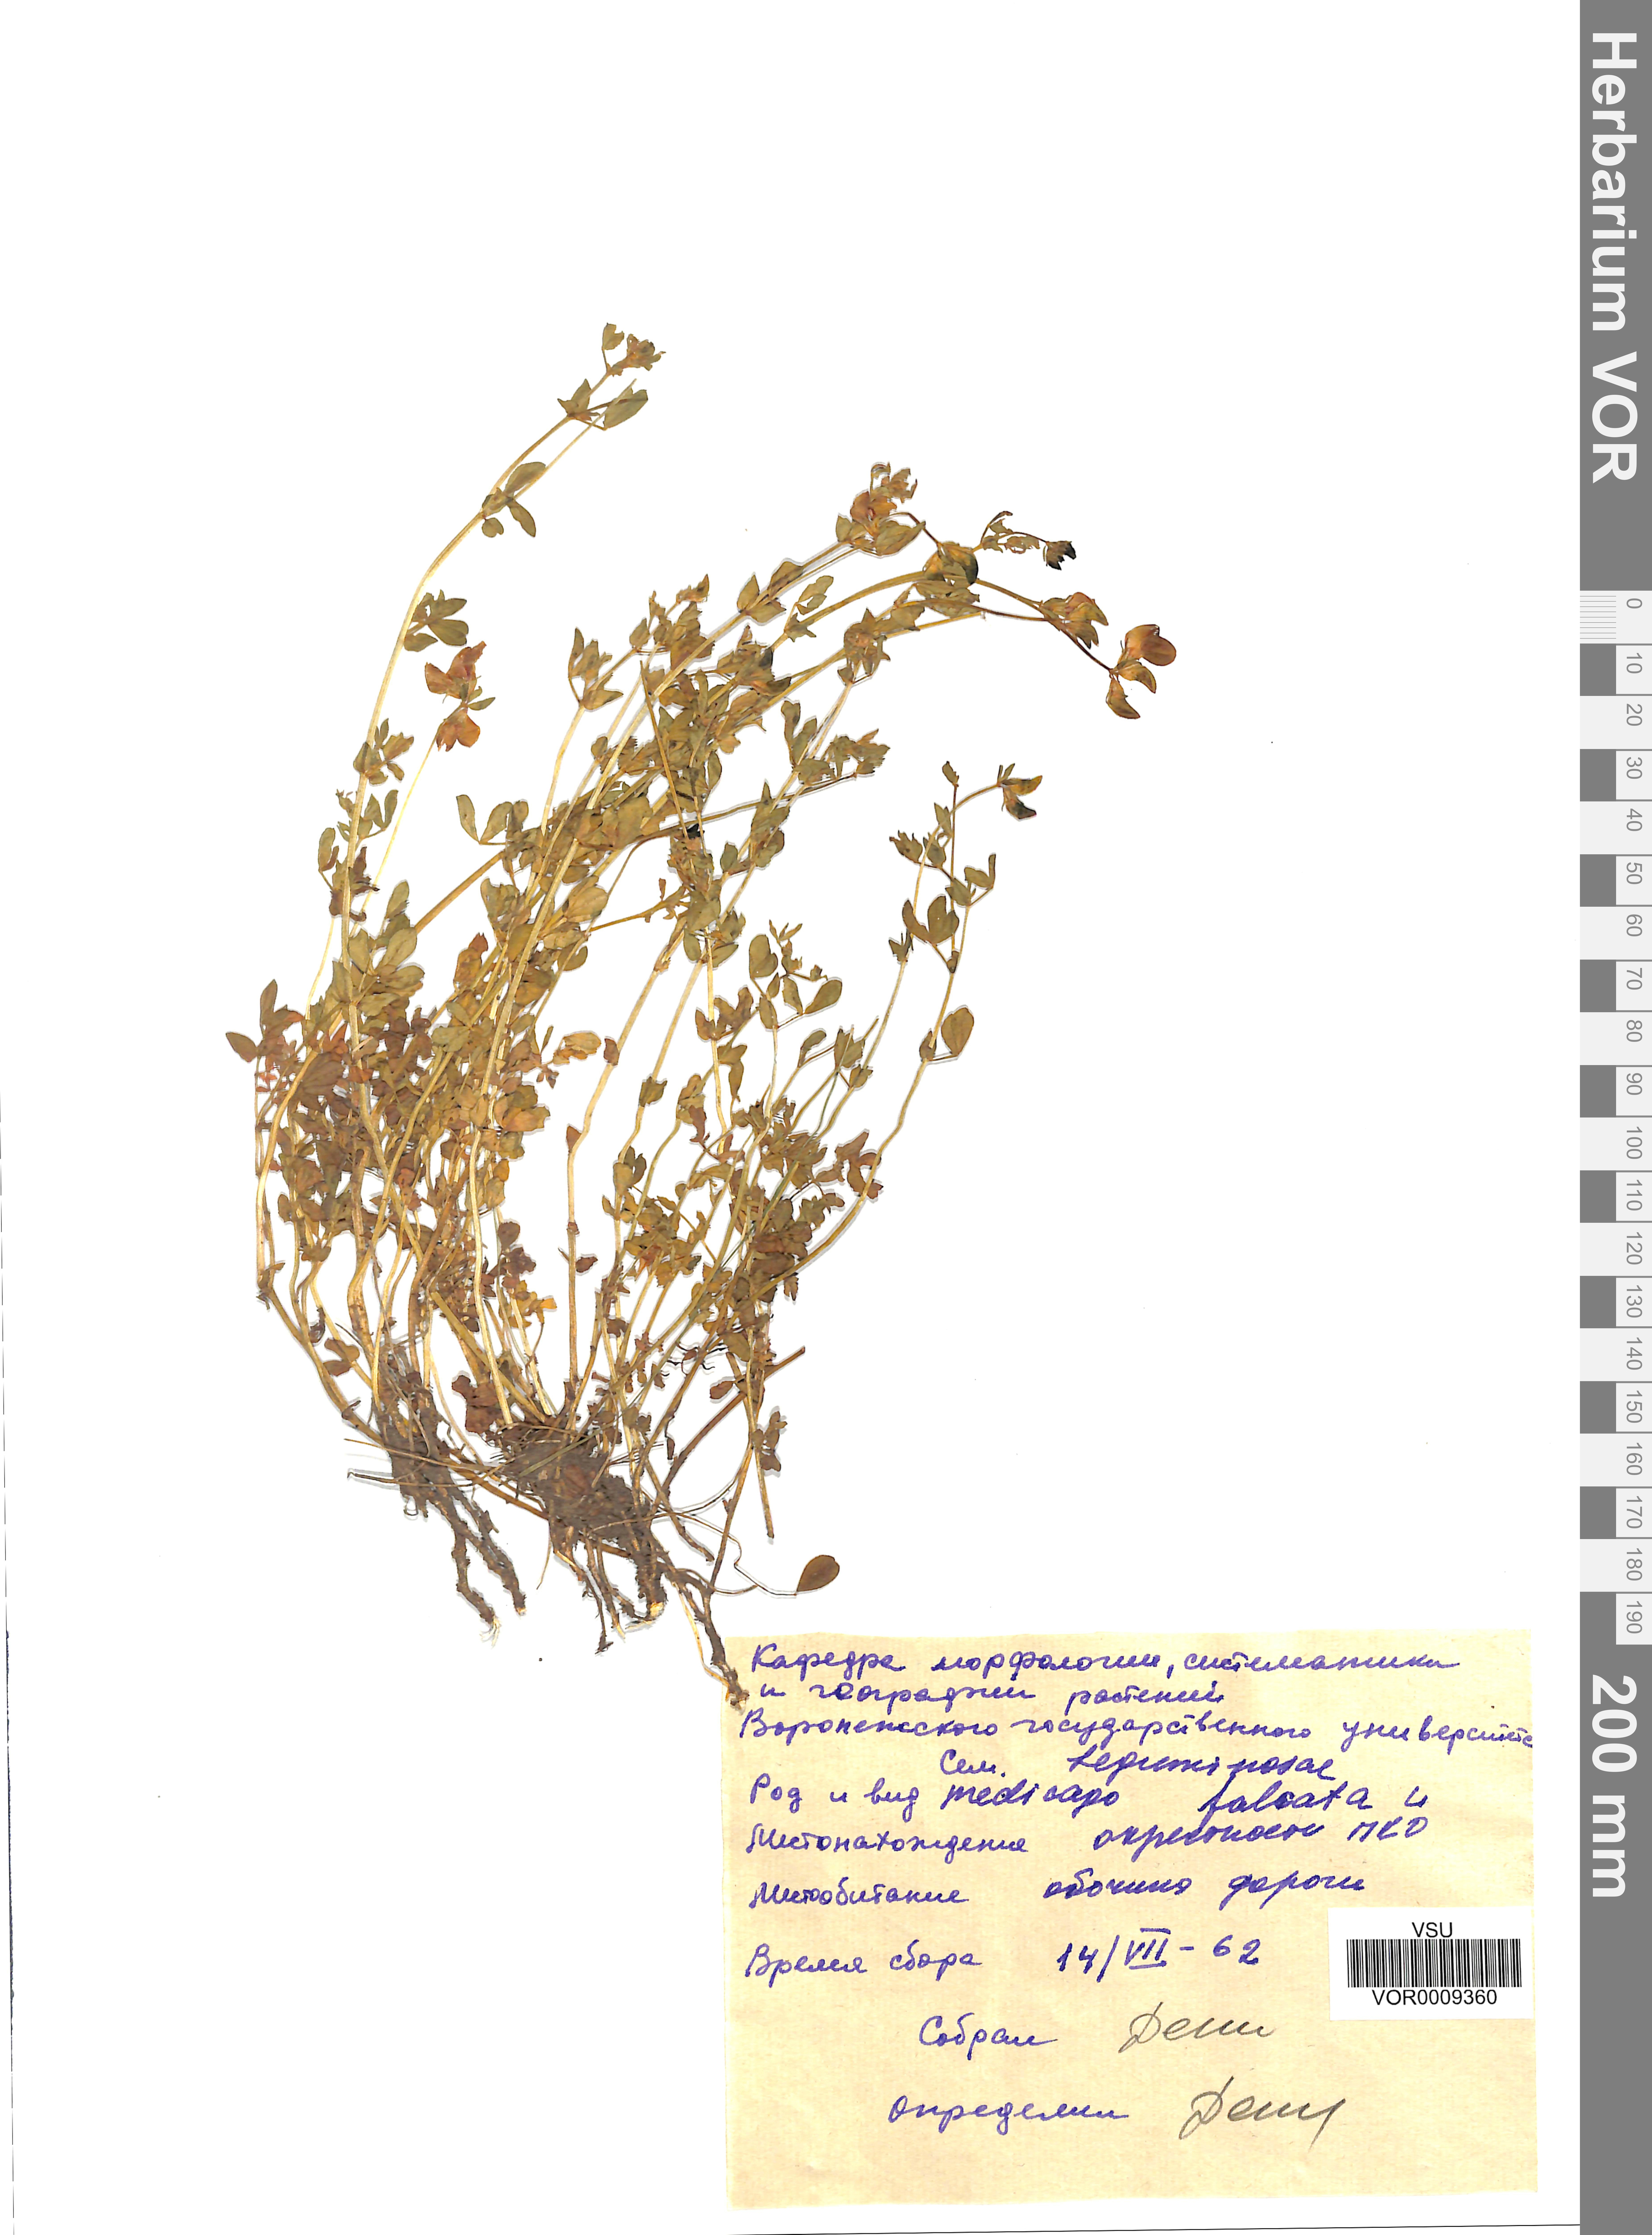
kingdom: Plantae
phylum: Tracheophyta
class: Magnoliopsida
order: Fabales
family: Fabaceae
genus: Medicago
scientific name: Medicago falcata
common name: Sickle medick
